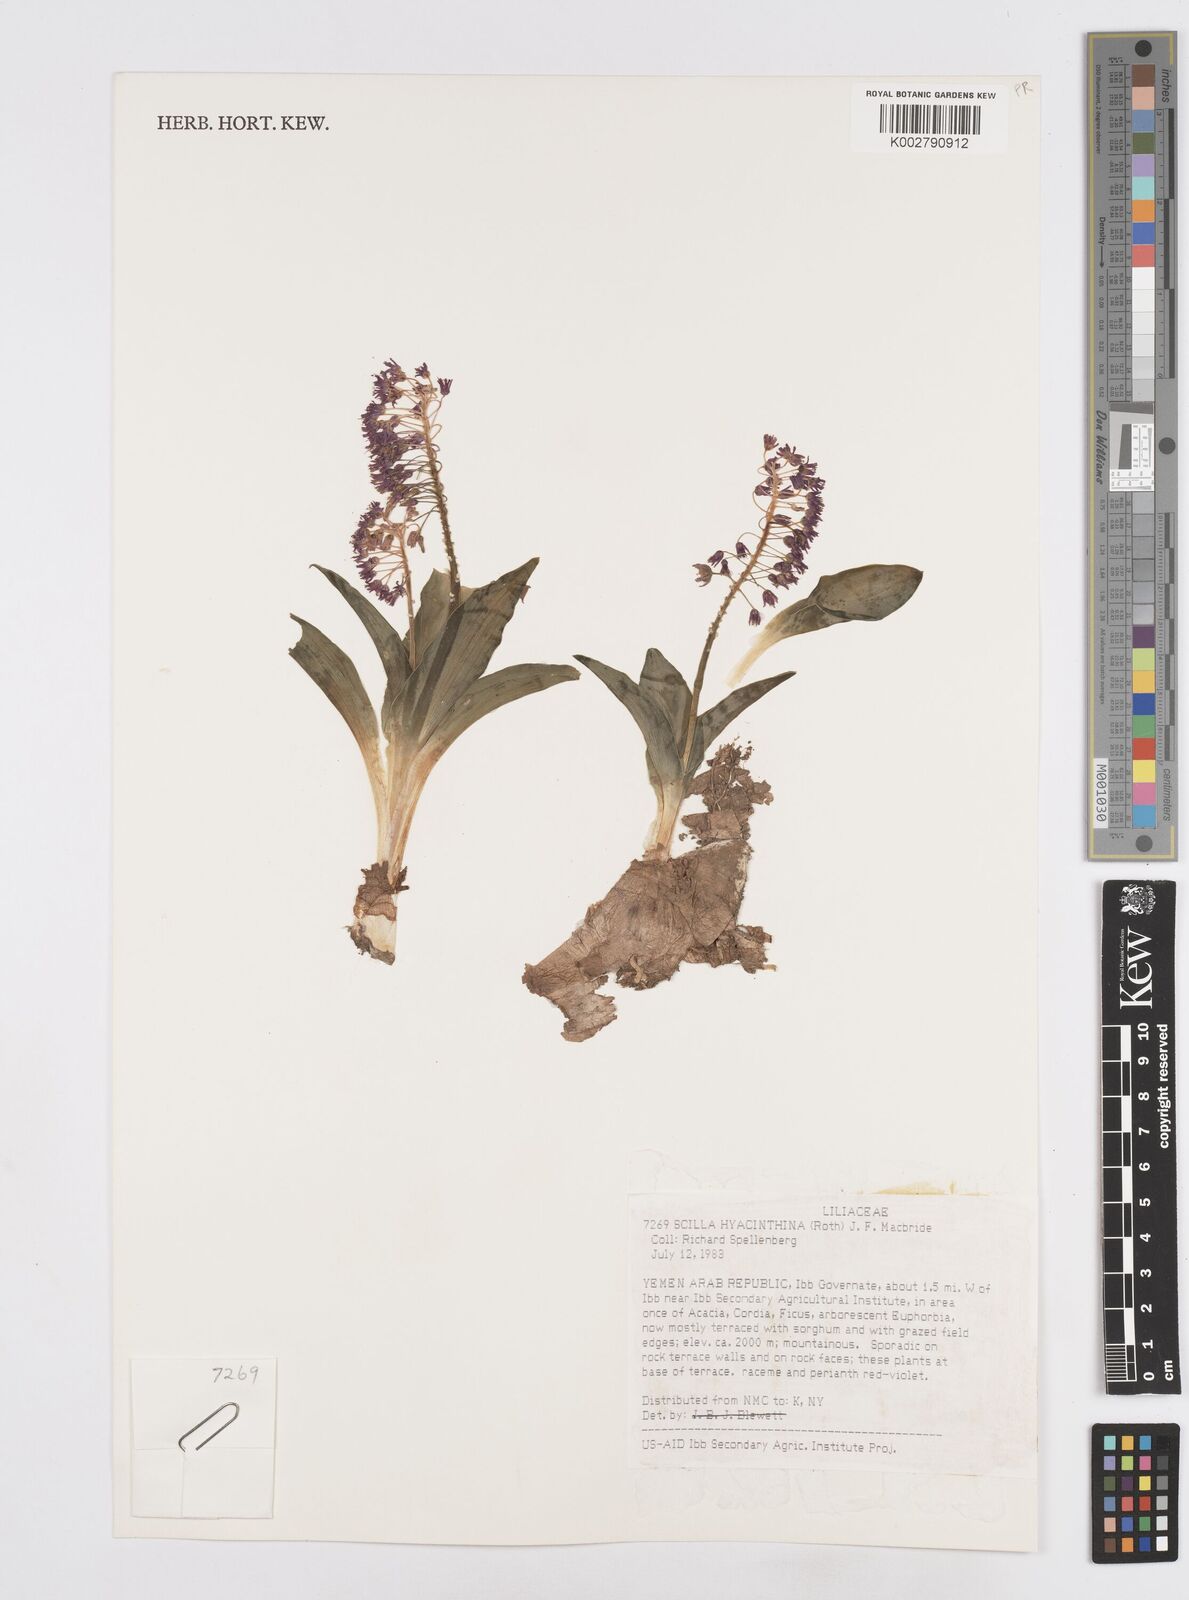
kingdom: Plantae
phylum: Tracheophyta
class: Liliopsida
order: Asparagales
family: Asparagaceae
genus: Ledebouria
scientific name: Ledebouria revoluta
